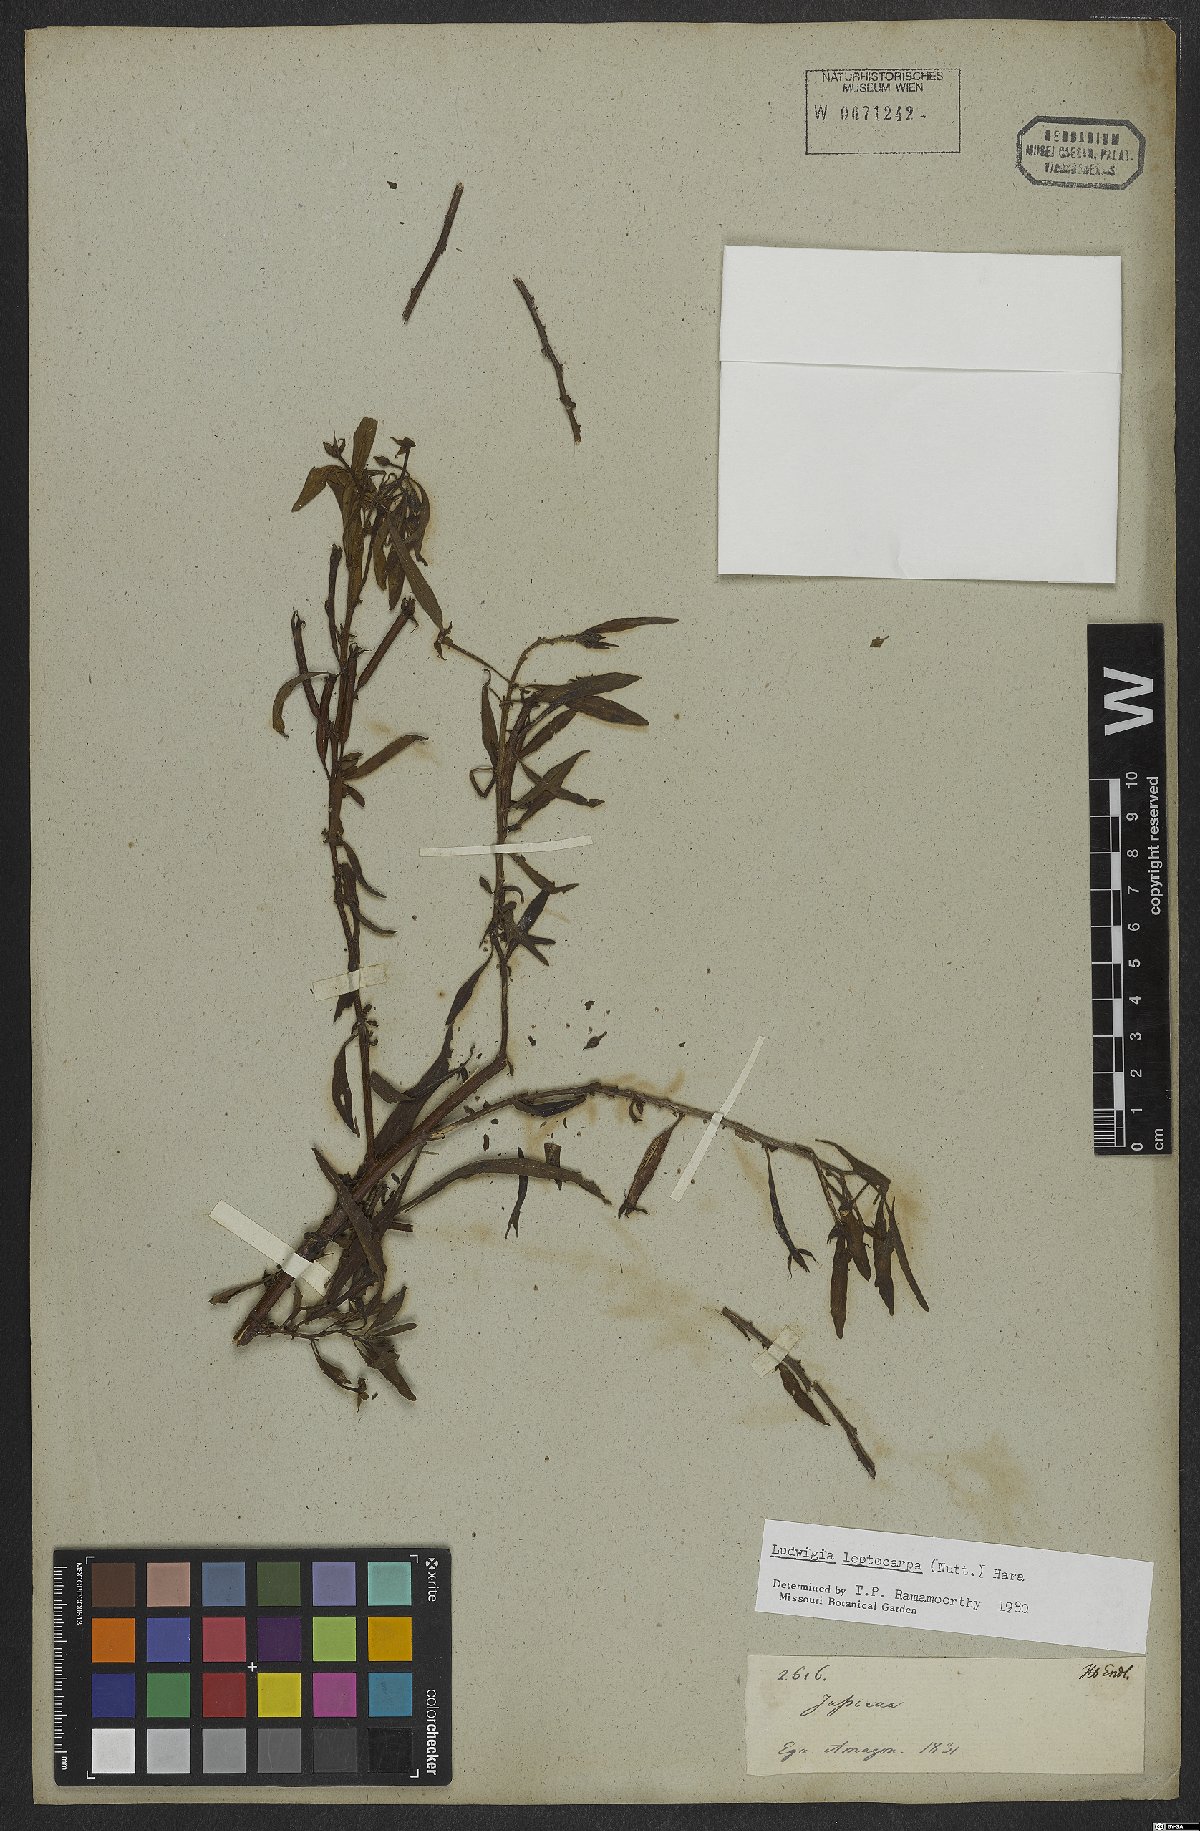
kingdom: Plantae
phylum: Tracheophyta
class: Magnoliopsida
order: Myrtales
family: Onagraceae
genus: Ludwigia
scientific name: Ludwigia leptocarpa
